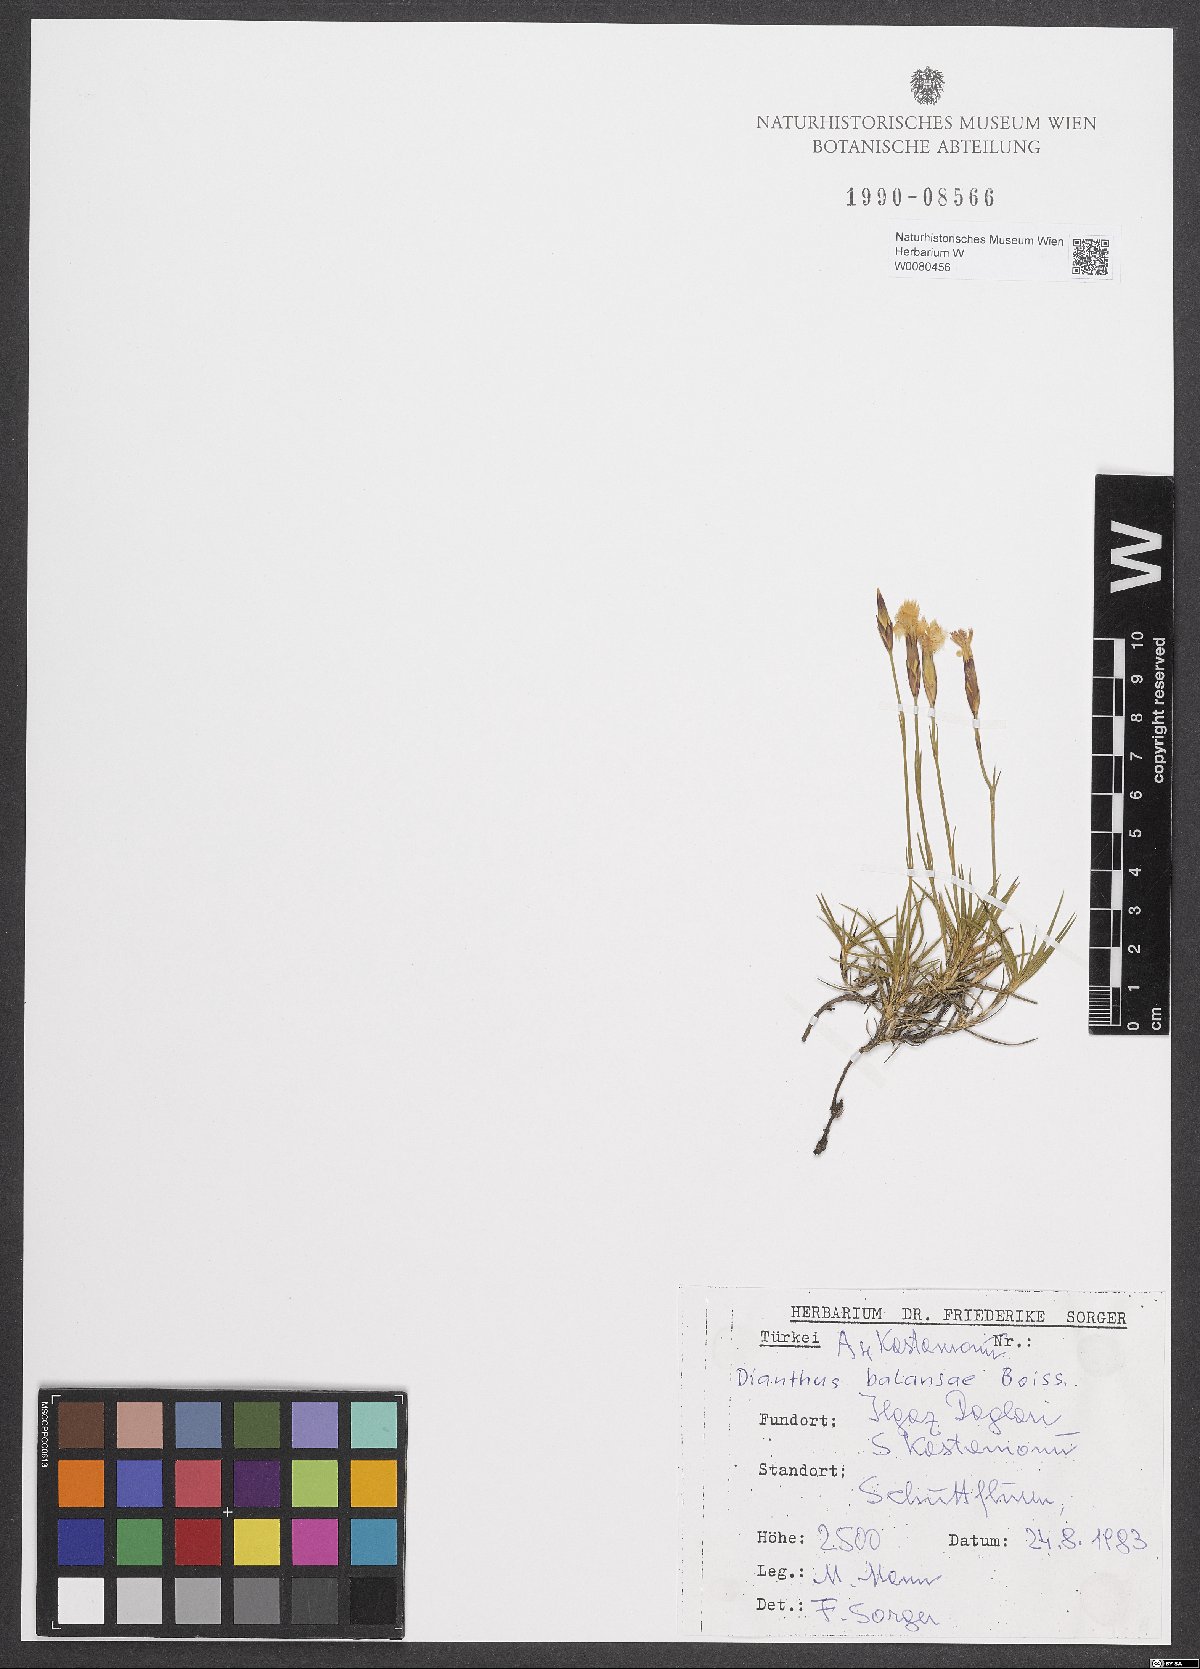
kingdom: Plantae
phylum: Tracheophyta
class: Magnoliopsida
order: Caryophyllales
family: Caryophyllaceae
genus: Dianthus
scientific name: Dianthus balansae
